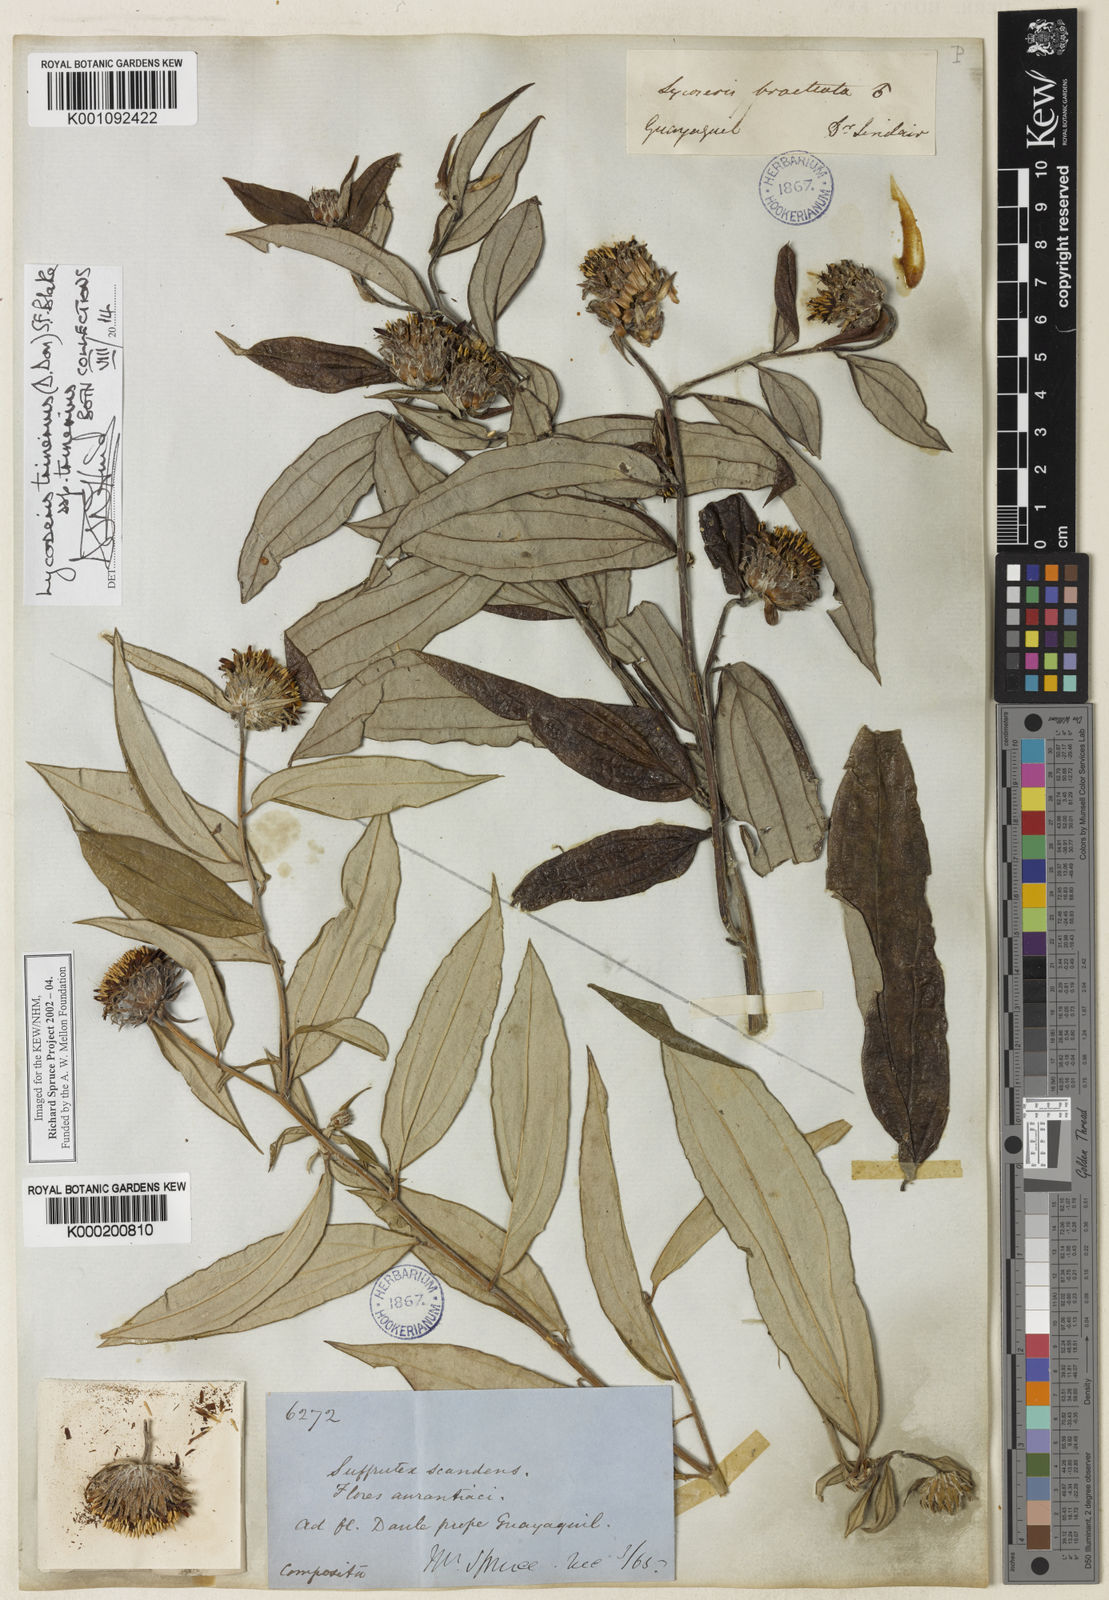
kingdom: Plantae
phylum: Tracheophyta
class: Magnoliopsida
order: Asterales
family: Asteraceae
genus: Lycoseris
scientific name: Lycoseris trinervis
